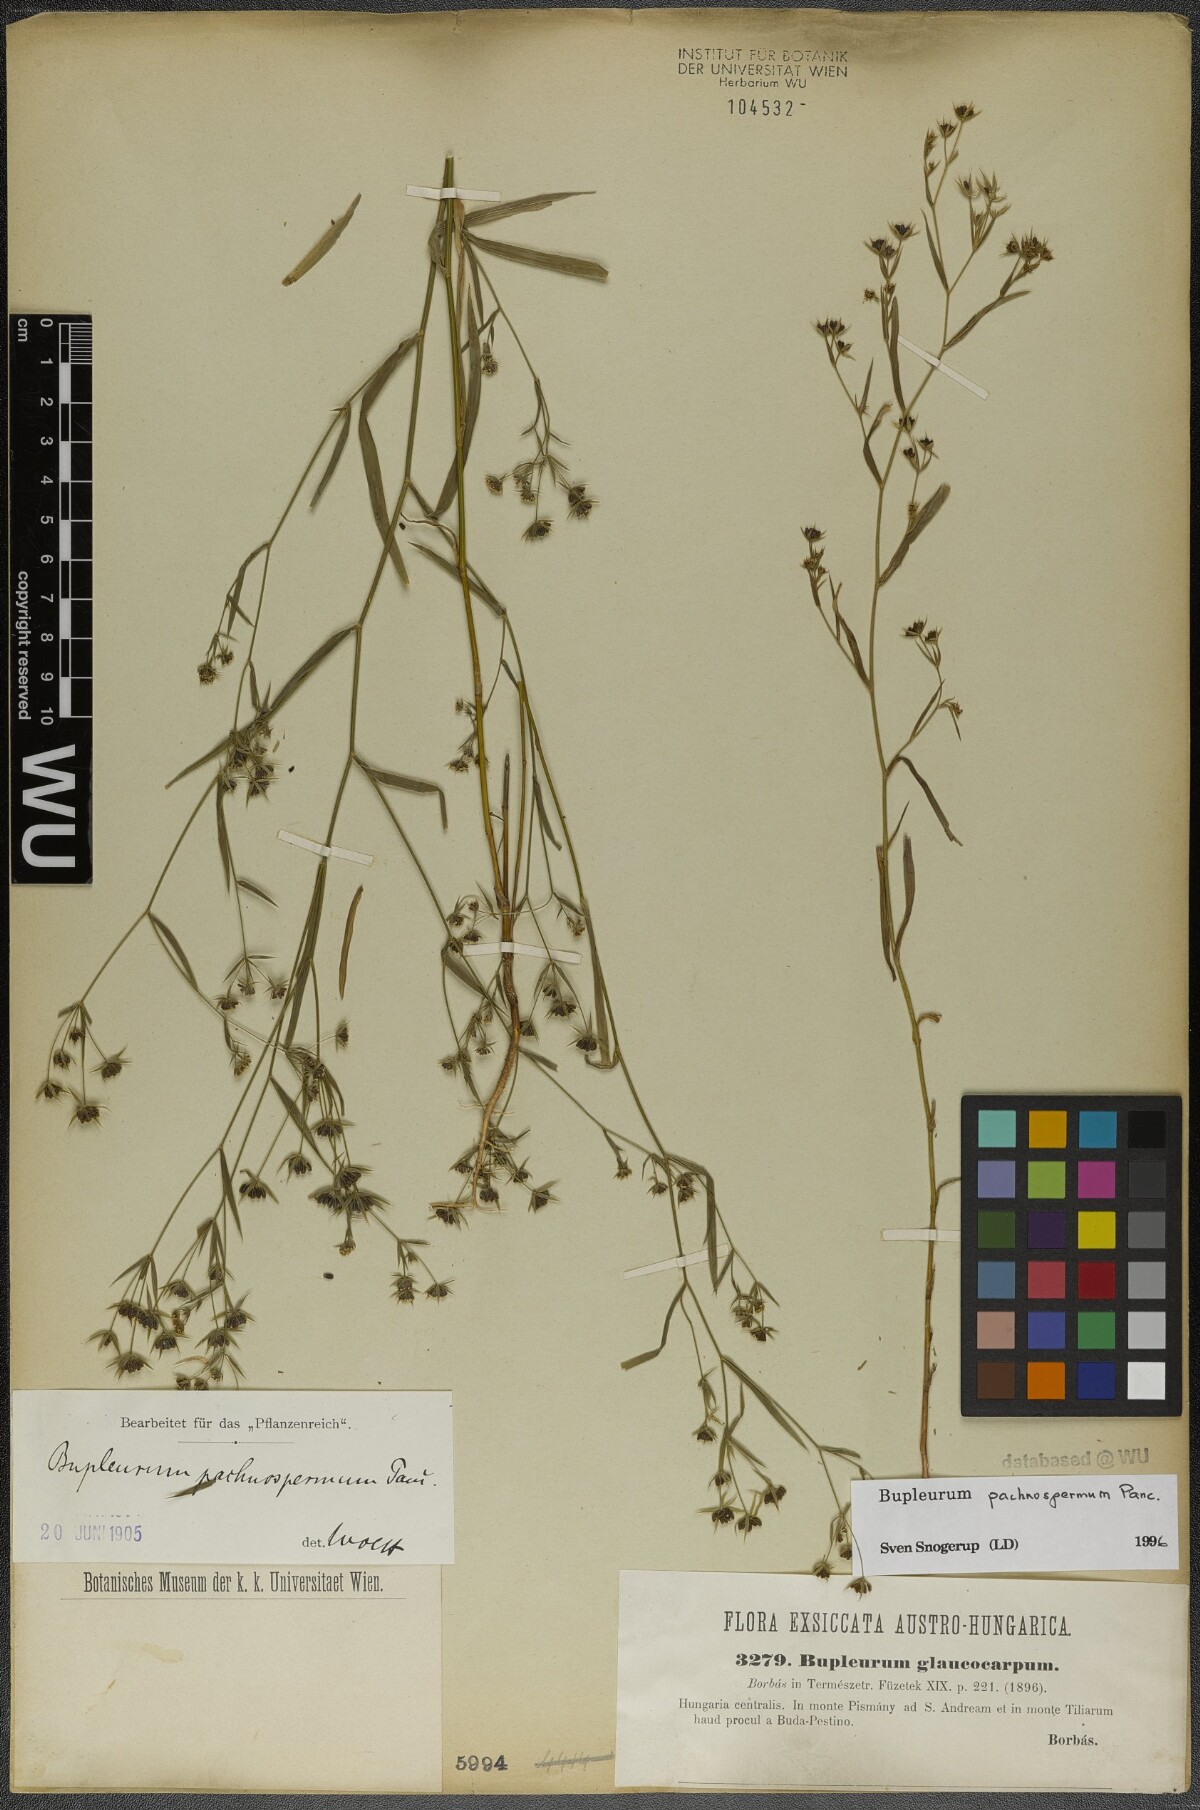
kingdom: Plantae
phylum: Tracheophyta
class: Magnoliopsida
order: Apiales
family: Apiaceae
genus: Bupleurum
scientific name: Bupleurum pachnospermum
